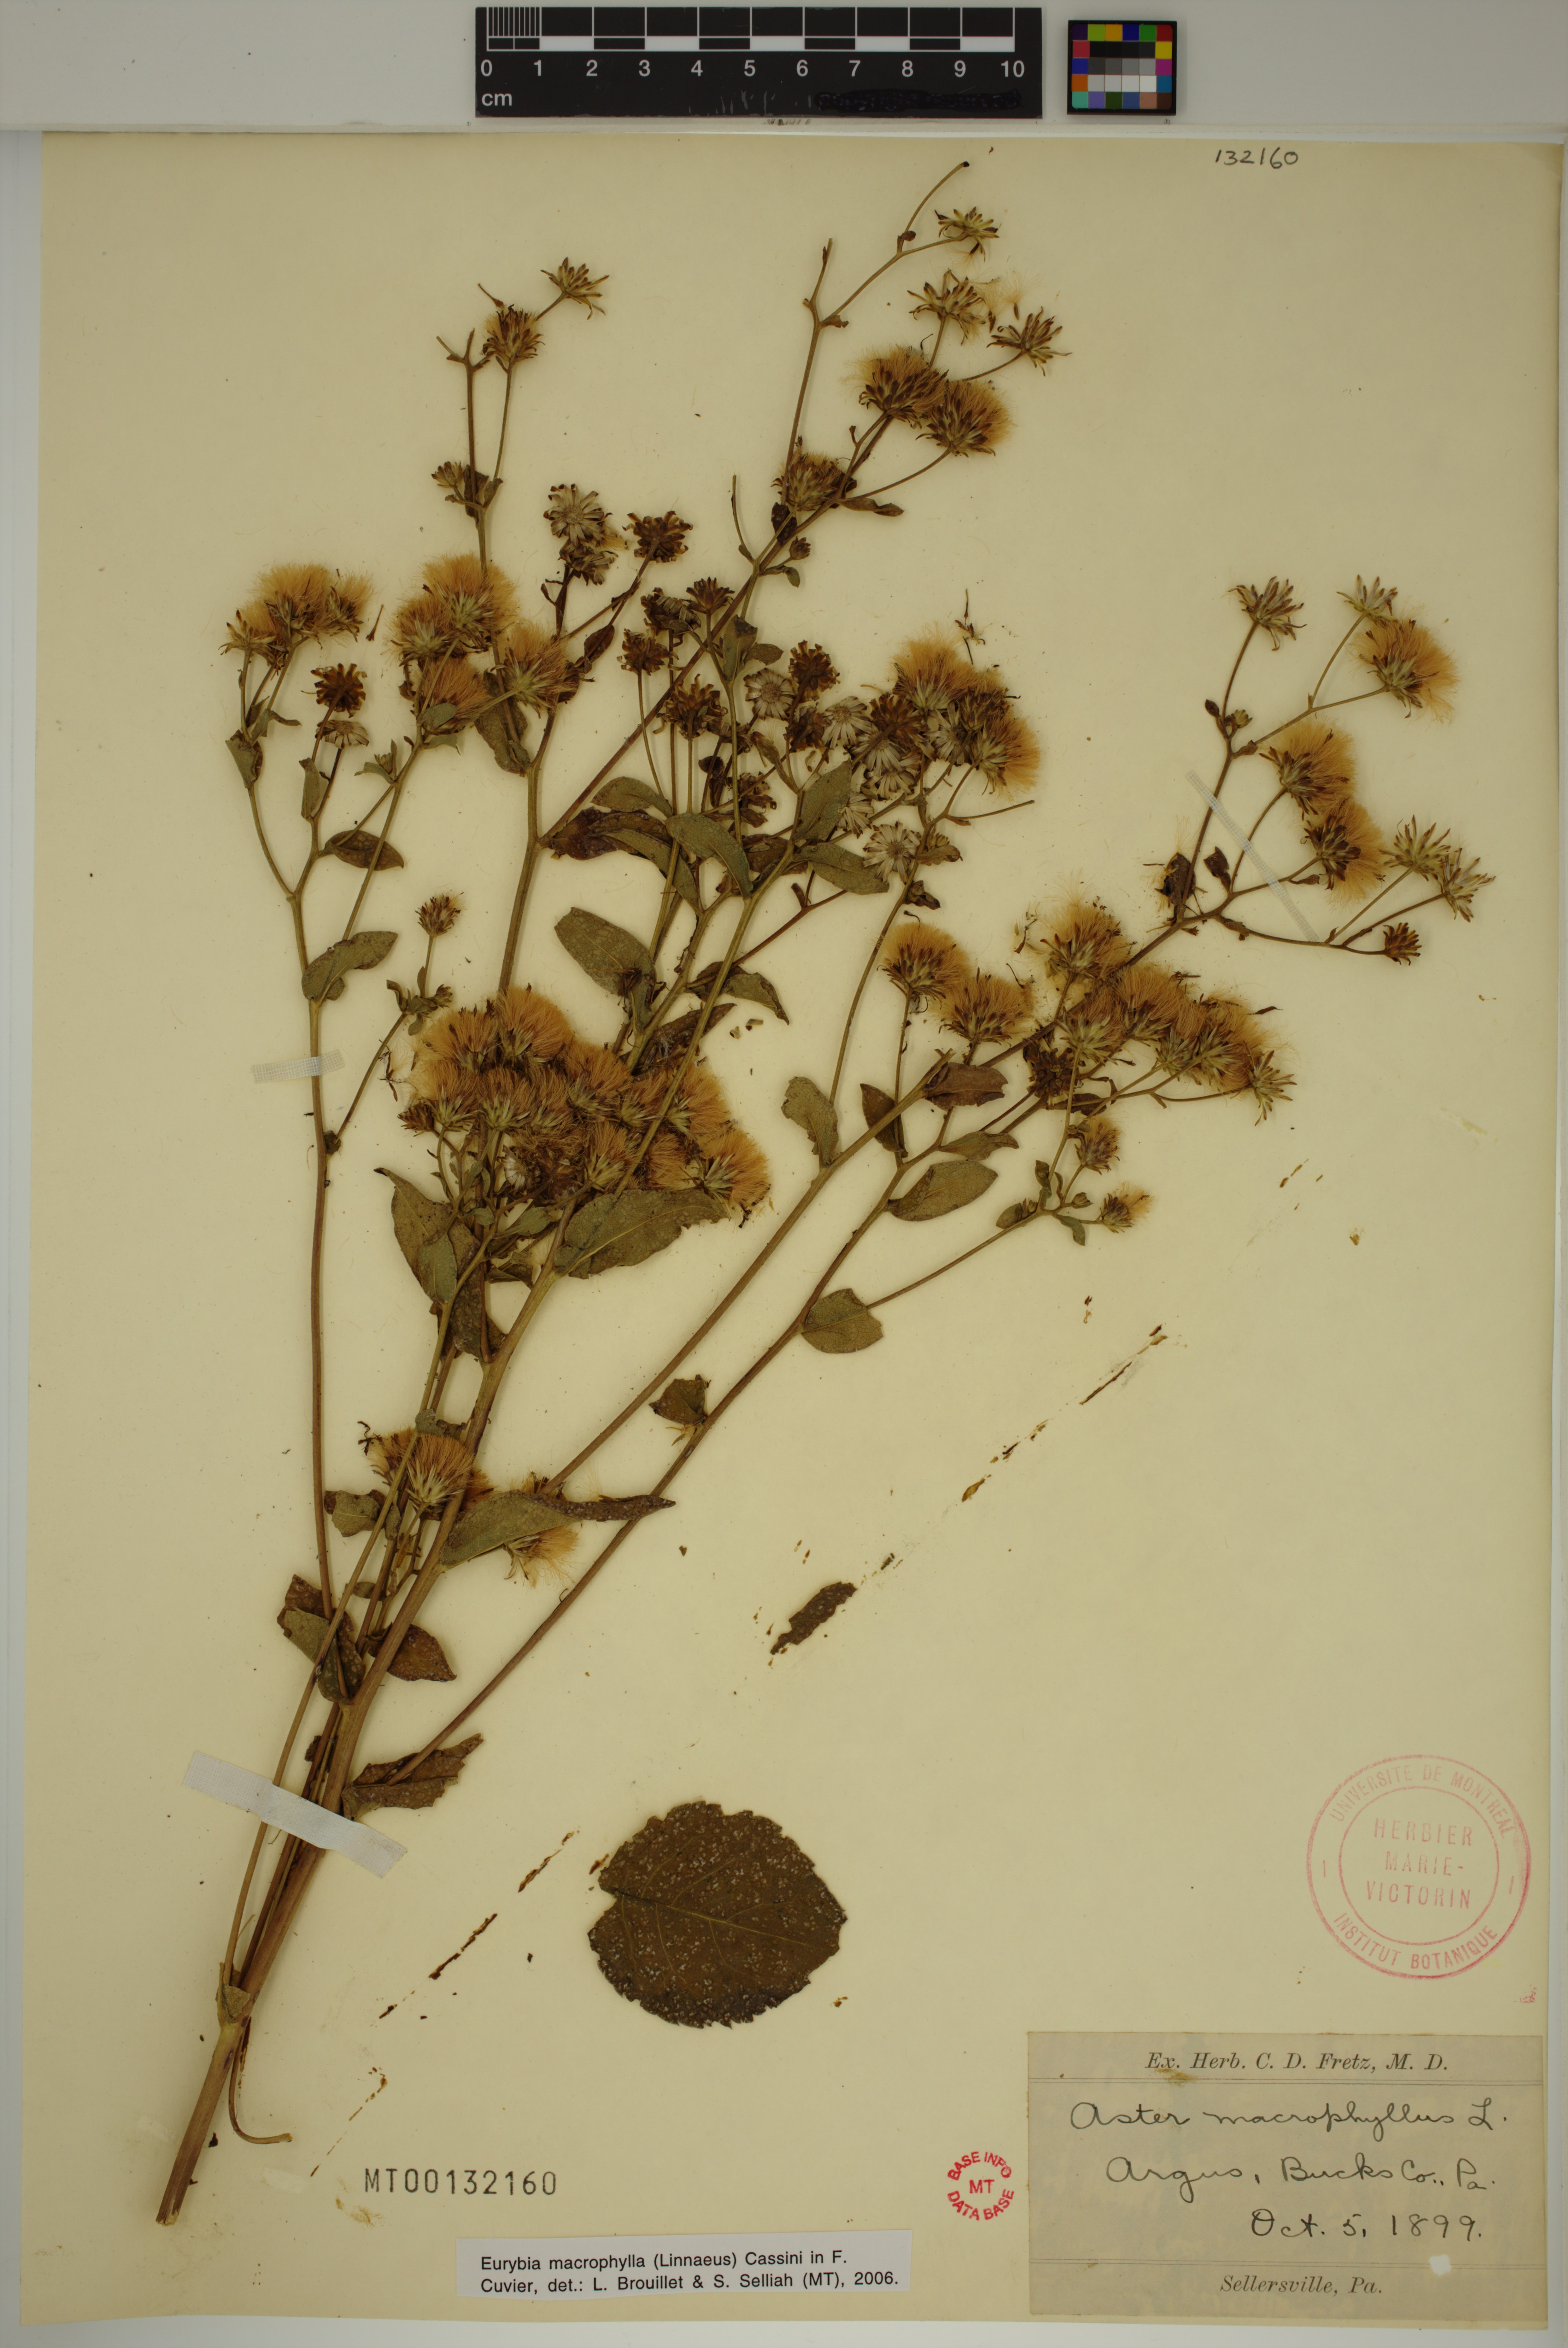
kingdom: Plantae
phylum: Tracheophyta
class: Magnoliopsida
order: Asterales
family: Asteraceae
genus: Eurybia
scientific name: Eurybia macrophylla
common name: Big-leaved aster
